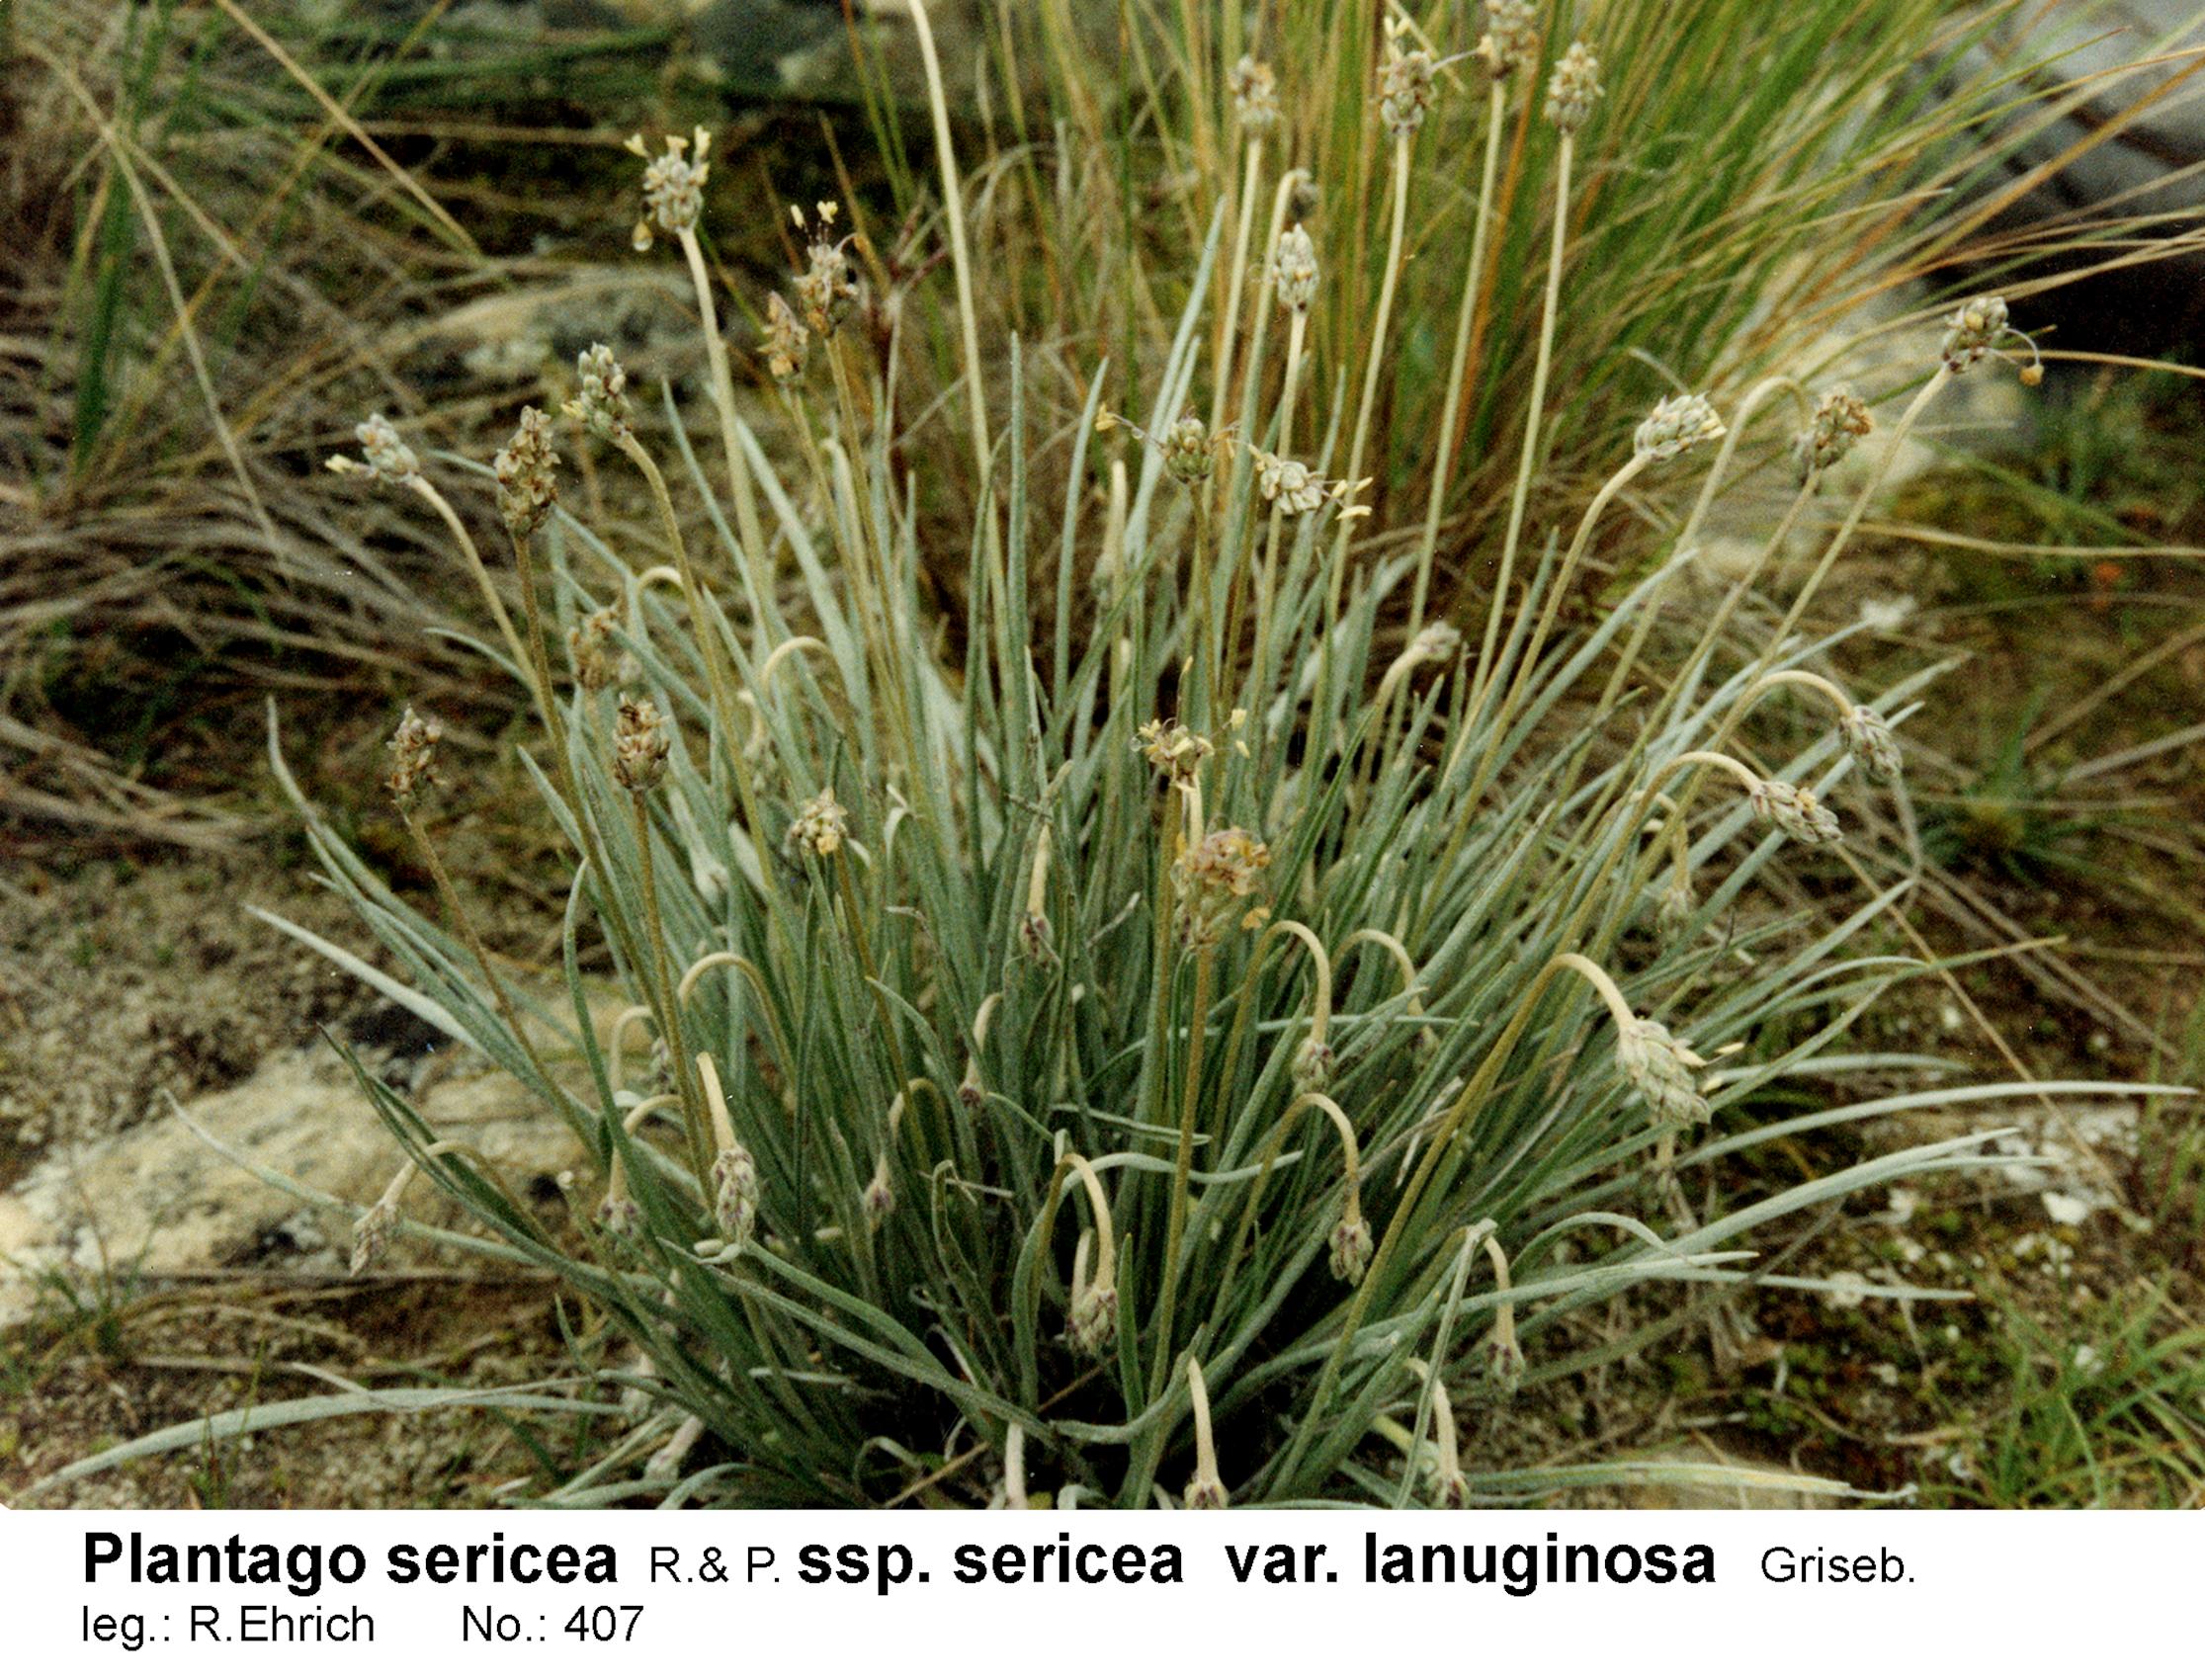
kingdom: Plantae
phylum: Tracheophyta
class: Magnoliopsida
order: Lamiales
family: Plantaginaceae
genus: Plantago
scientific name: Plantago sericea
